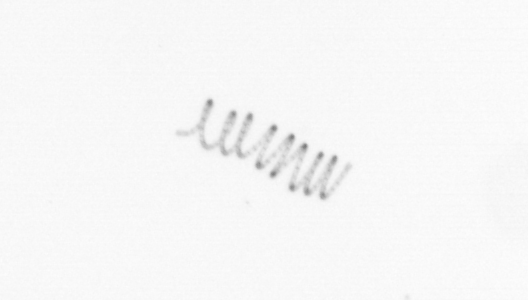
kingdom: Chromista
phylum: Ochrophyta
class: Bacillariophyceae
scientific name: Bacillariophyceae
